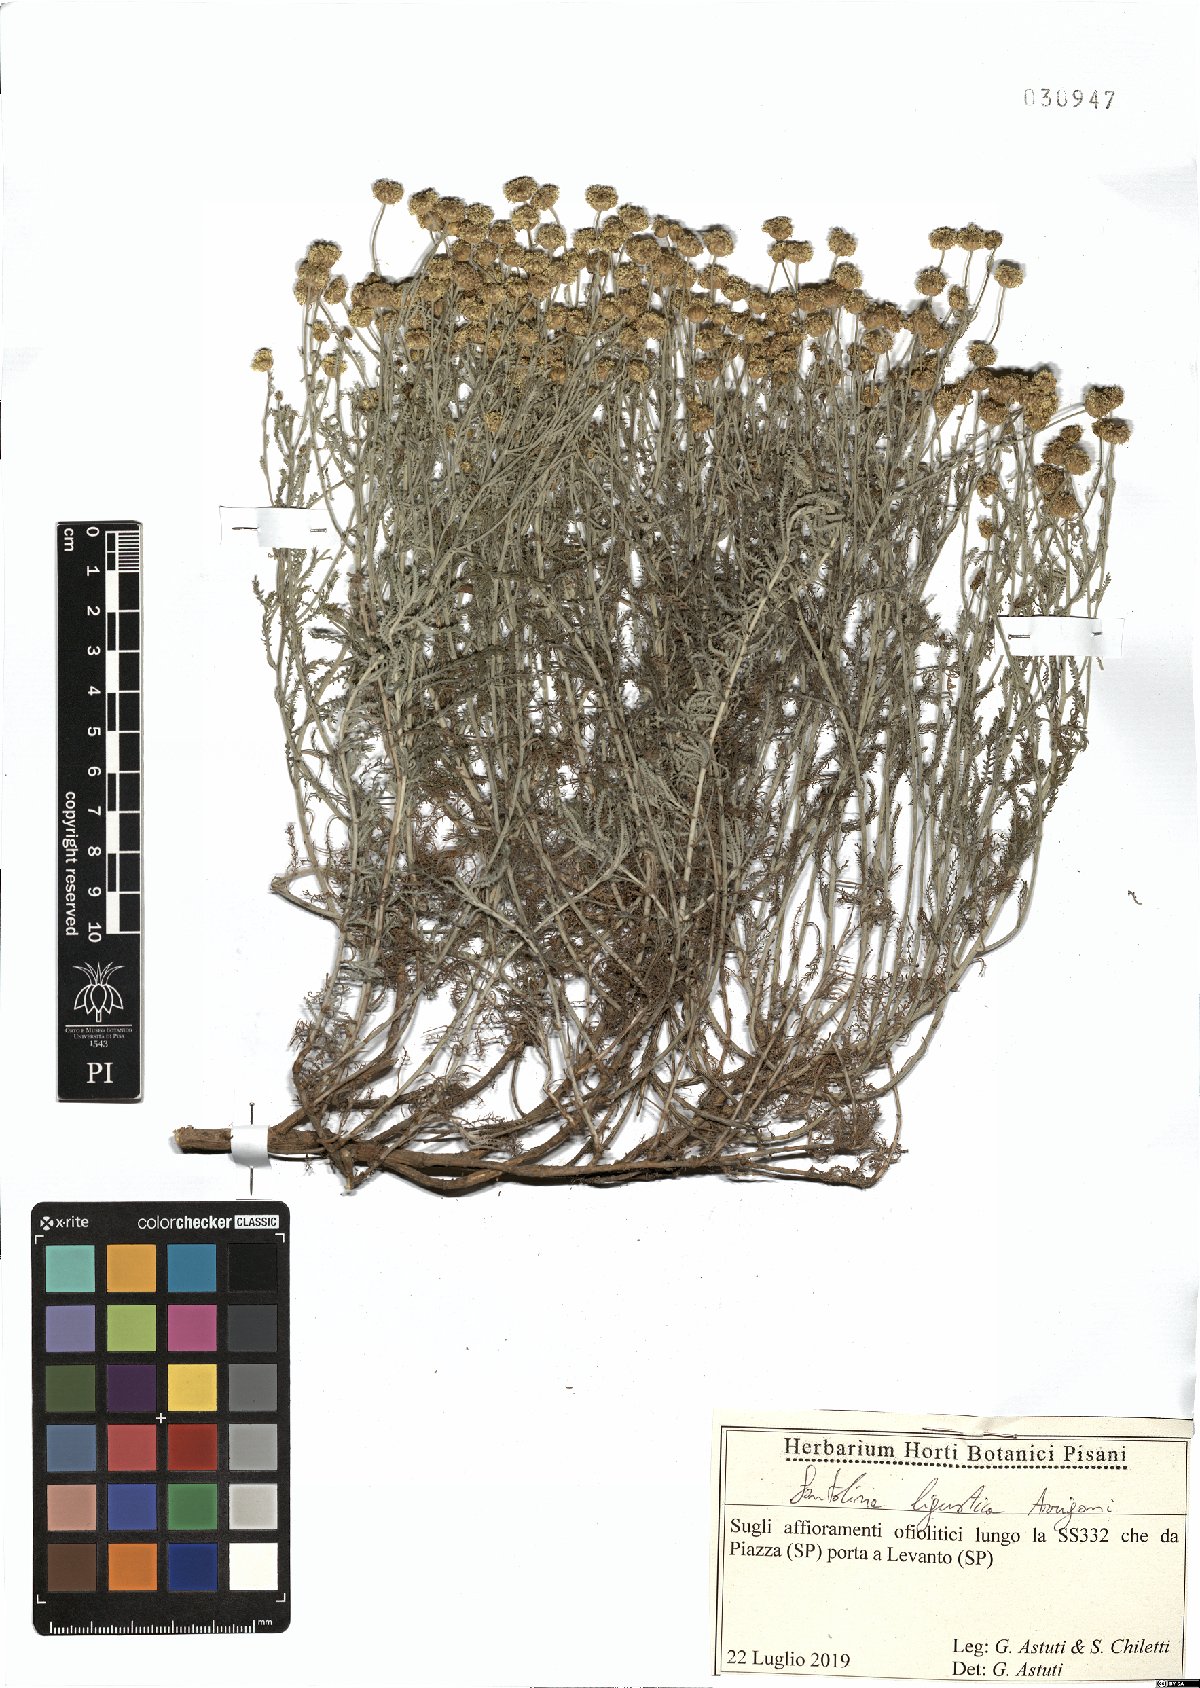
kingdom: Plantae
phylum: Tracheophyta
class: Magnoliopsida
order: Asterales
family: Asteraceae
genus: Santolina
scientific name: Santolina ligustica
